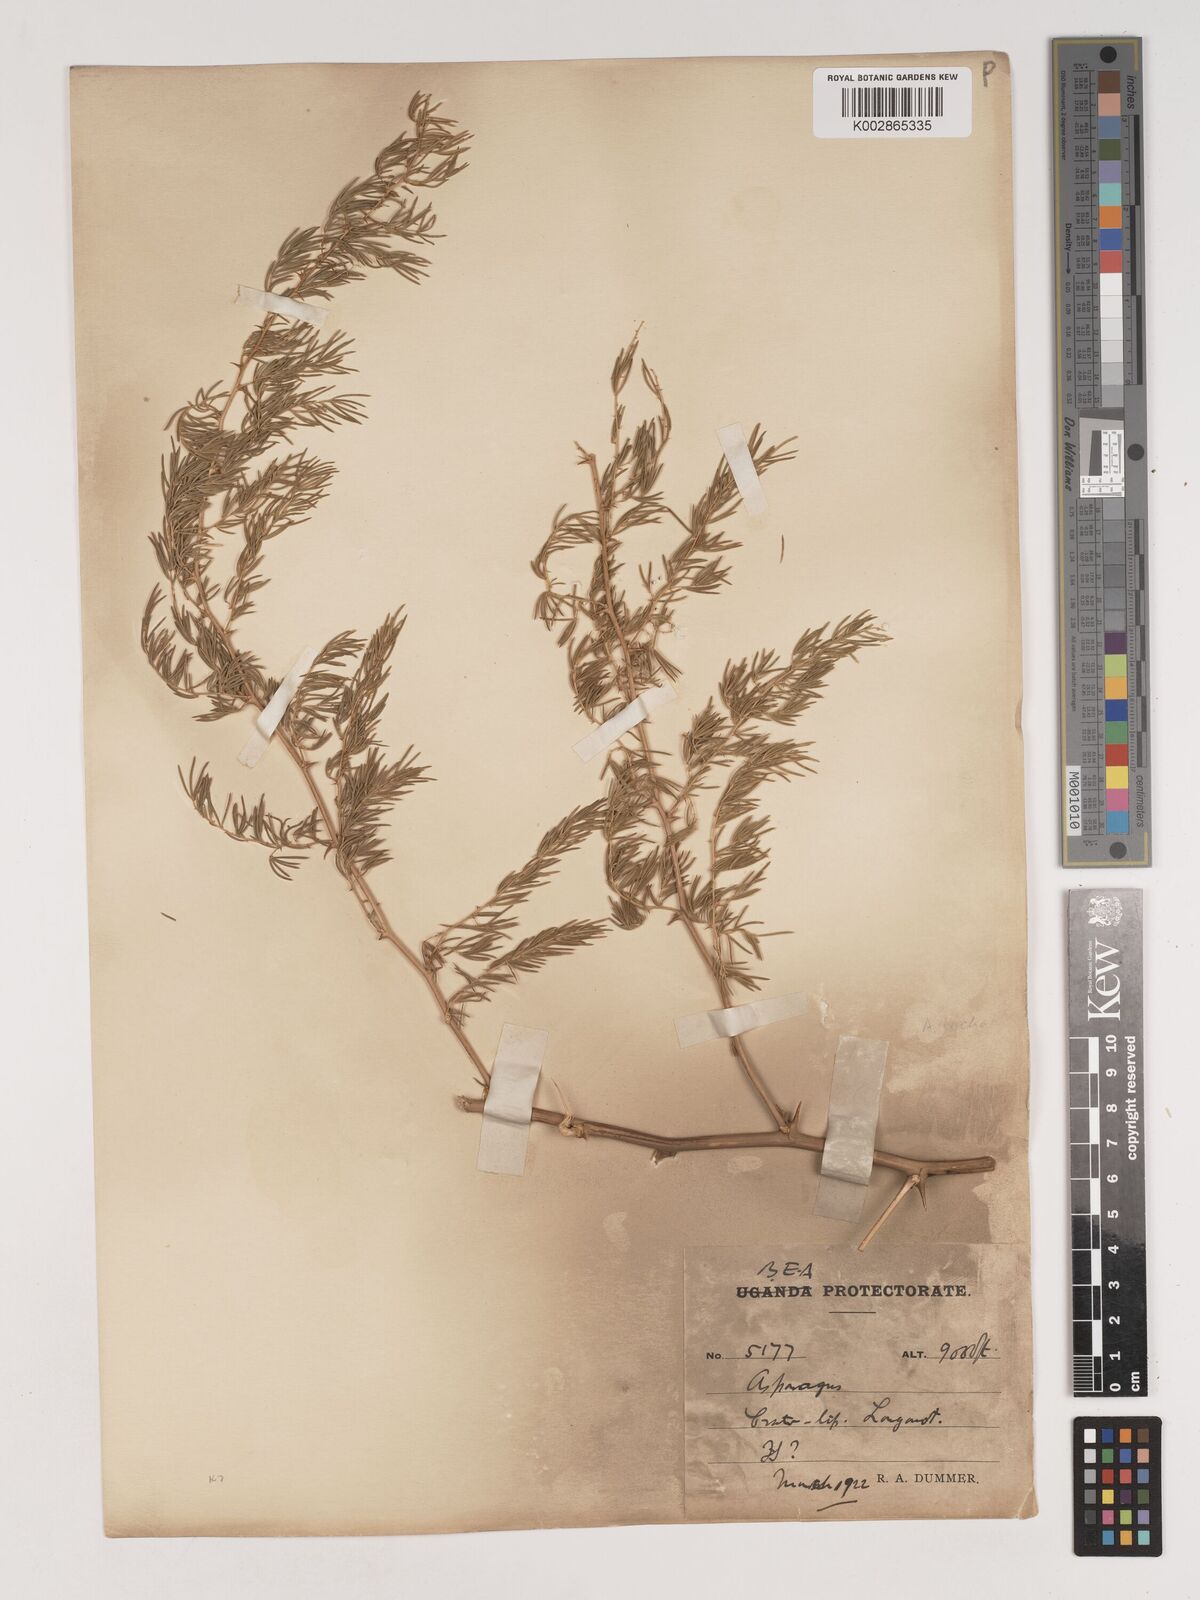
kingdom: Plantae
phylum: Tracheophyta
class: Liliopsida
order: Asparagales
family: Asparagaceae
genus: Asparagus
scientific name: Asparagus
